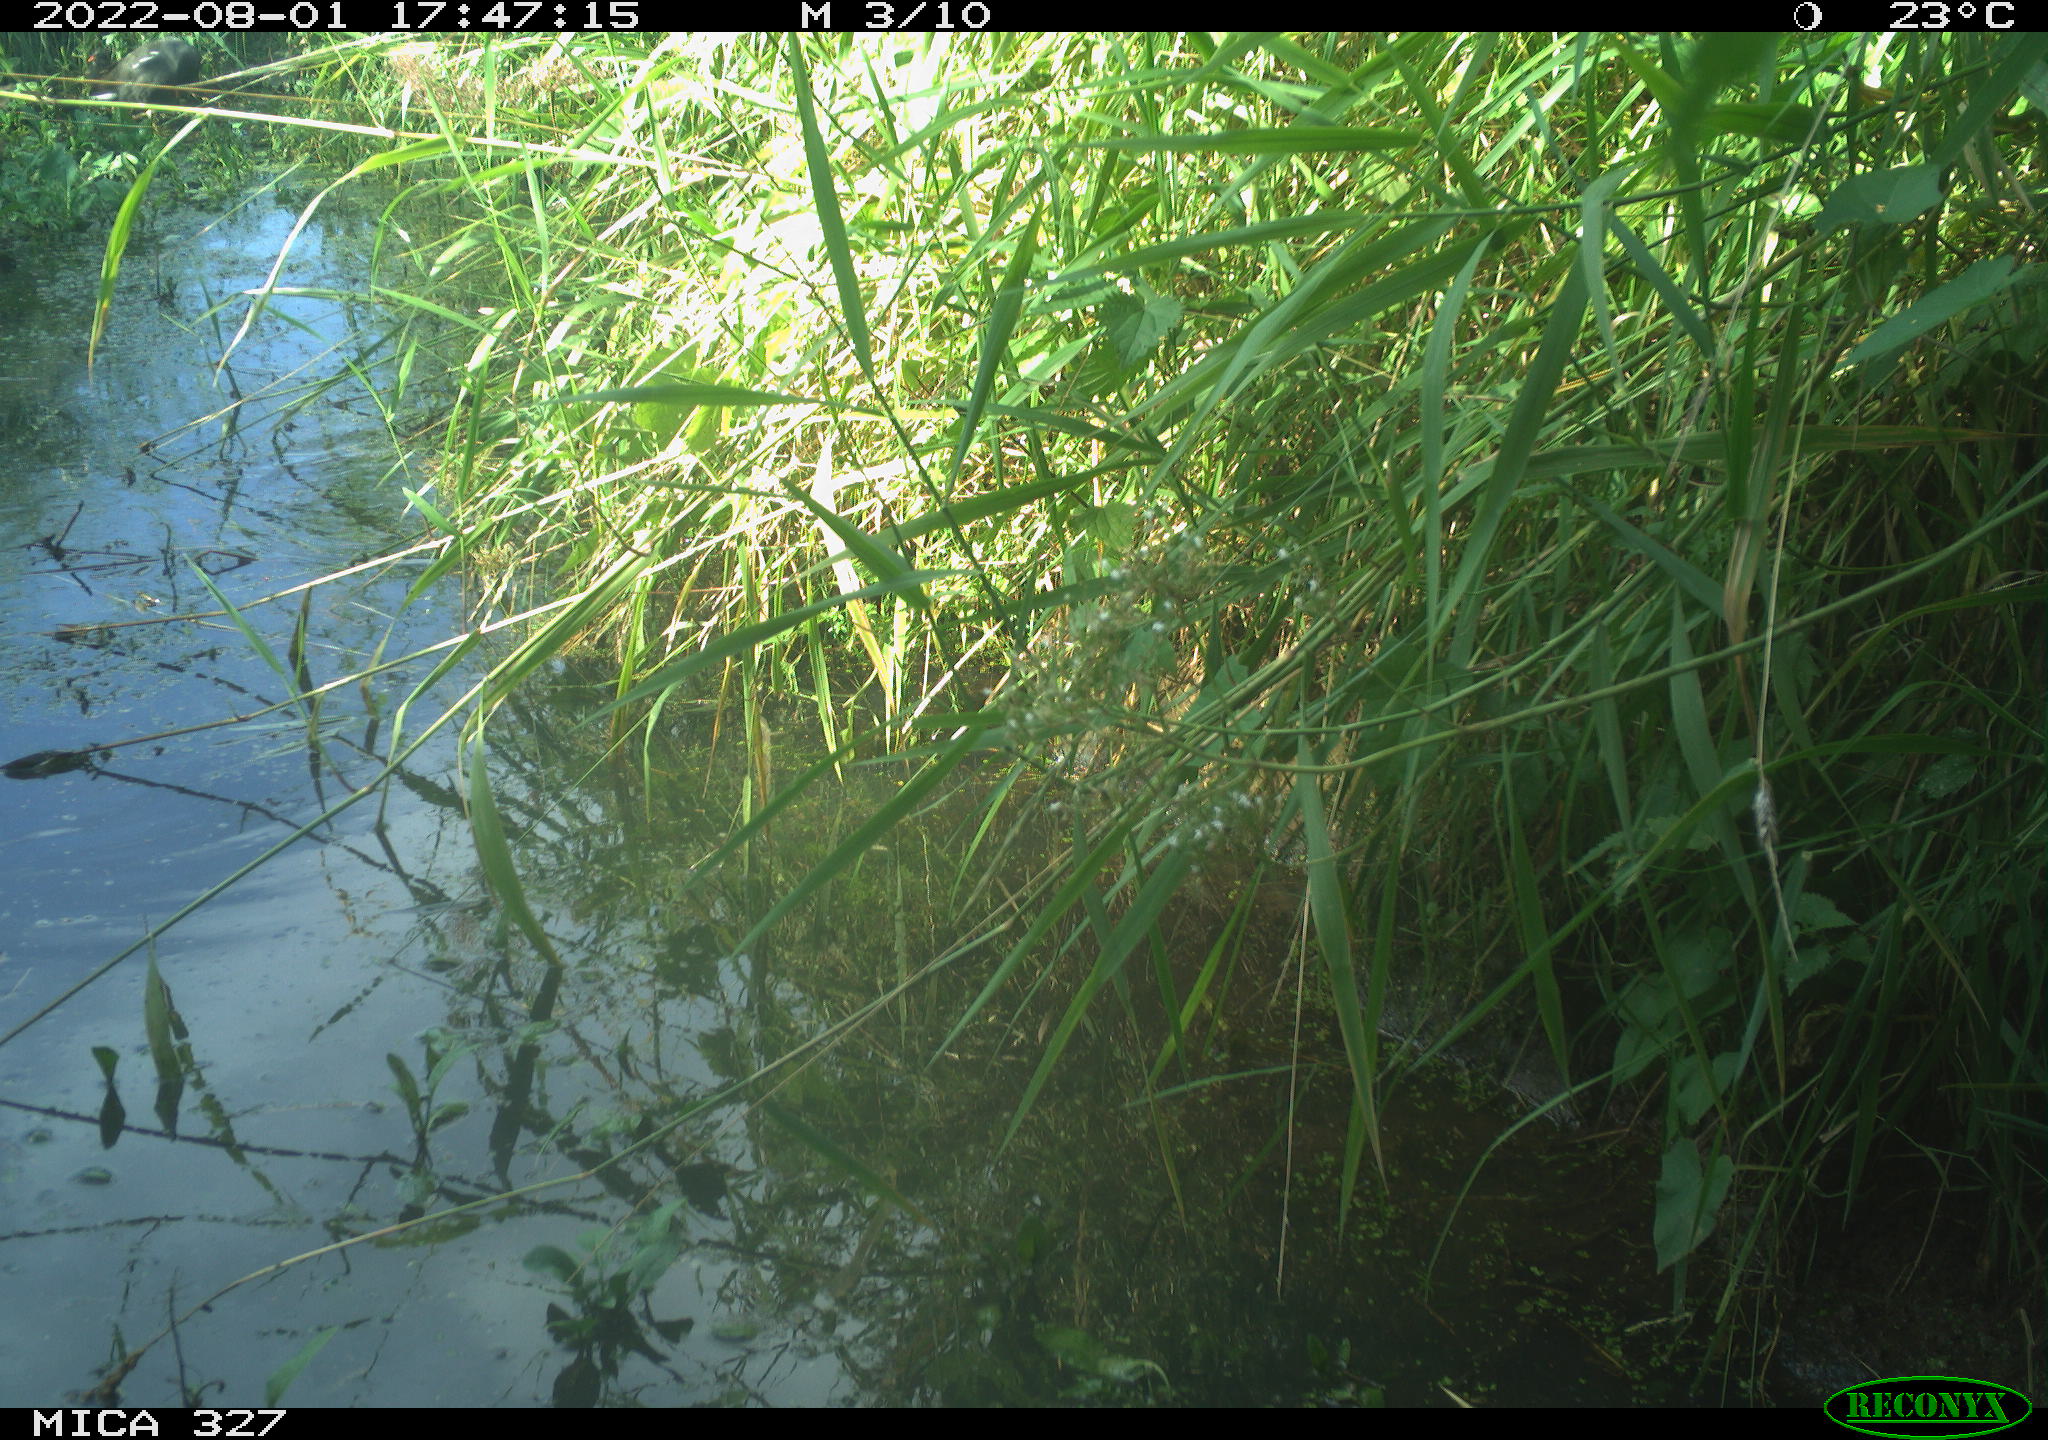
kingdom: Animalia
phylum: Chordata
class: Aves
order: Gruiformes
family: Rallidae
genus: Gallinula
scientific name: Gallinula chloropus
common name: Common moorhen
